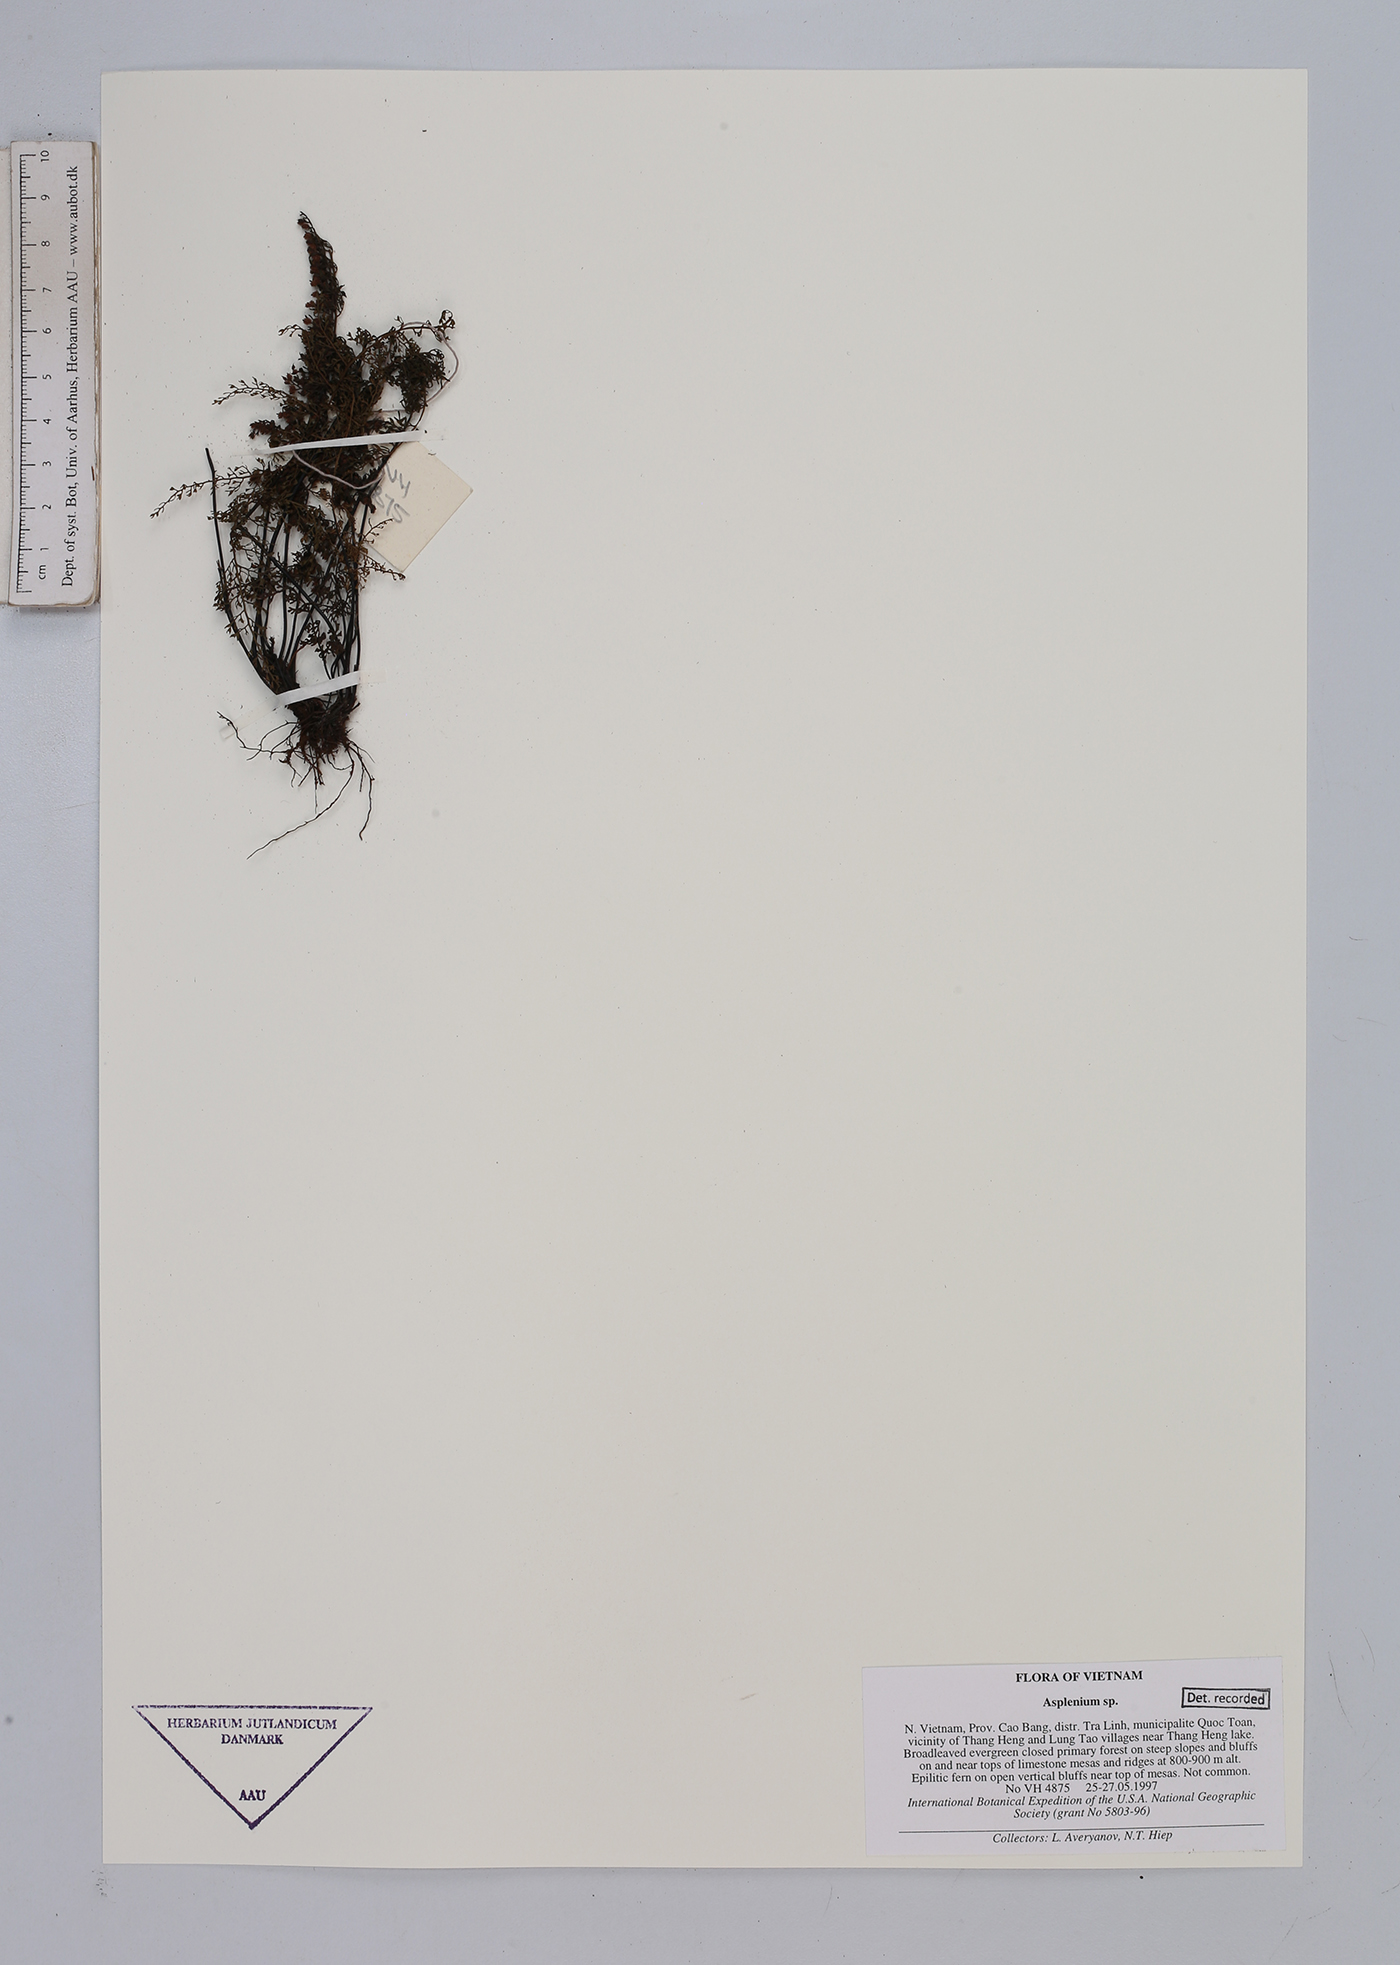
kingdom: Plantae
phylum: Tracheophyta
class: Polypodiopsida
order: Polypodiales
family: Aspleniaceae
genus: Asplenium
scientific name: Asplenium
